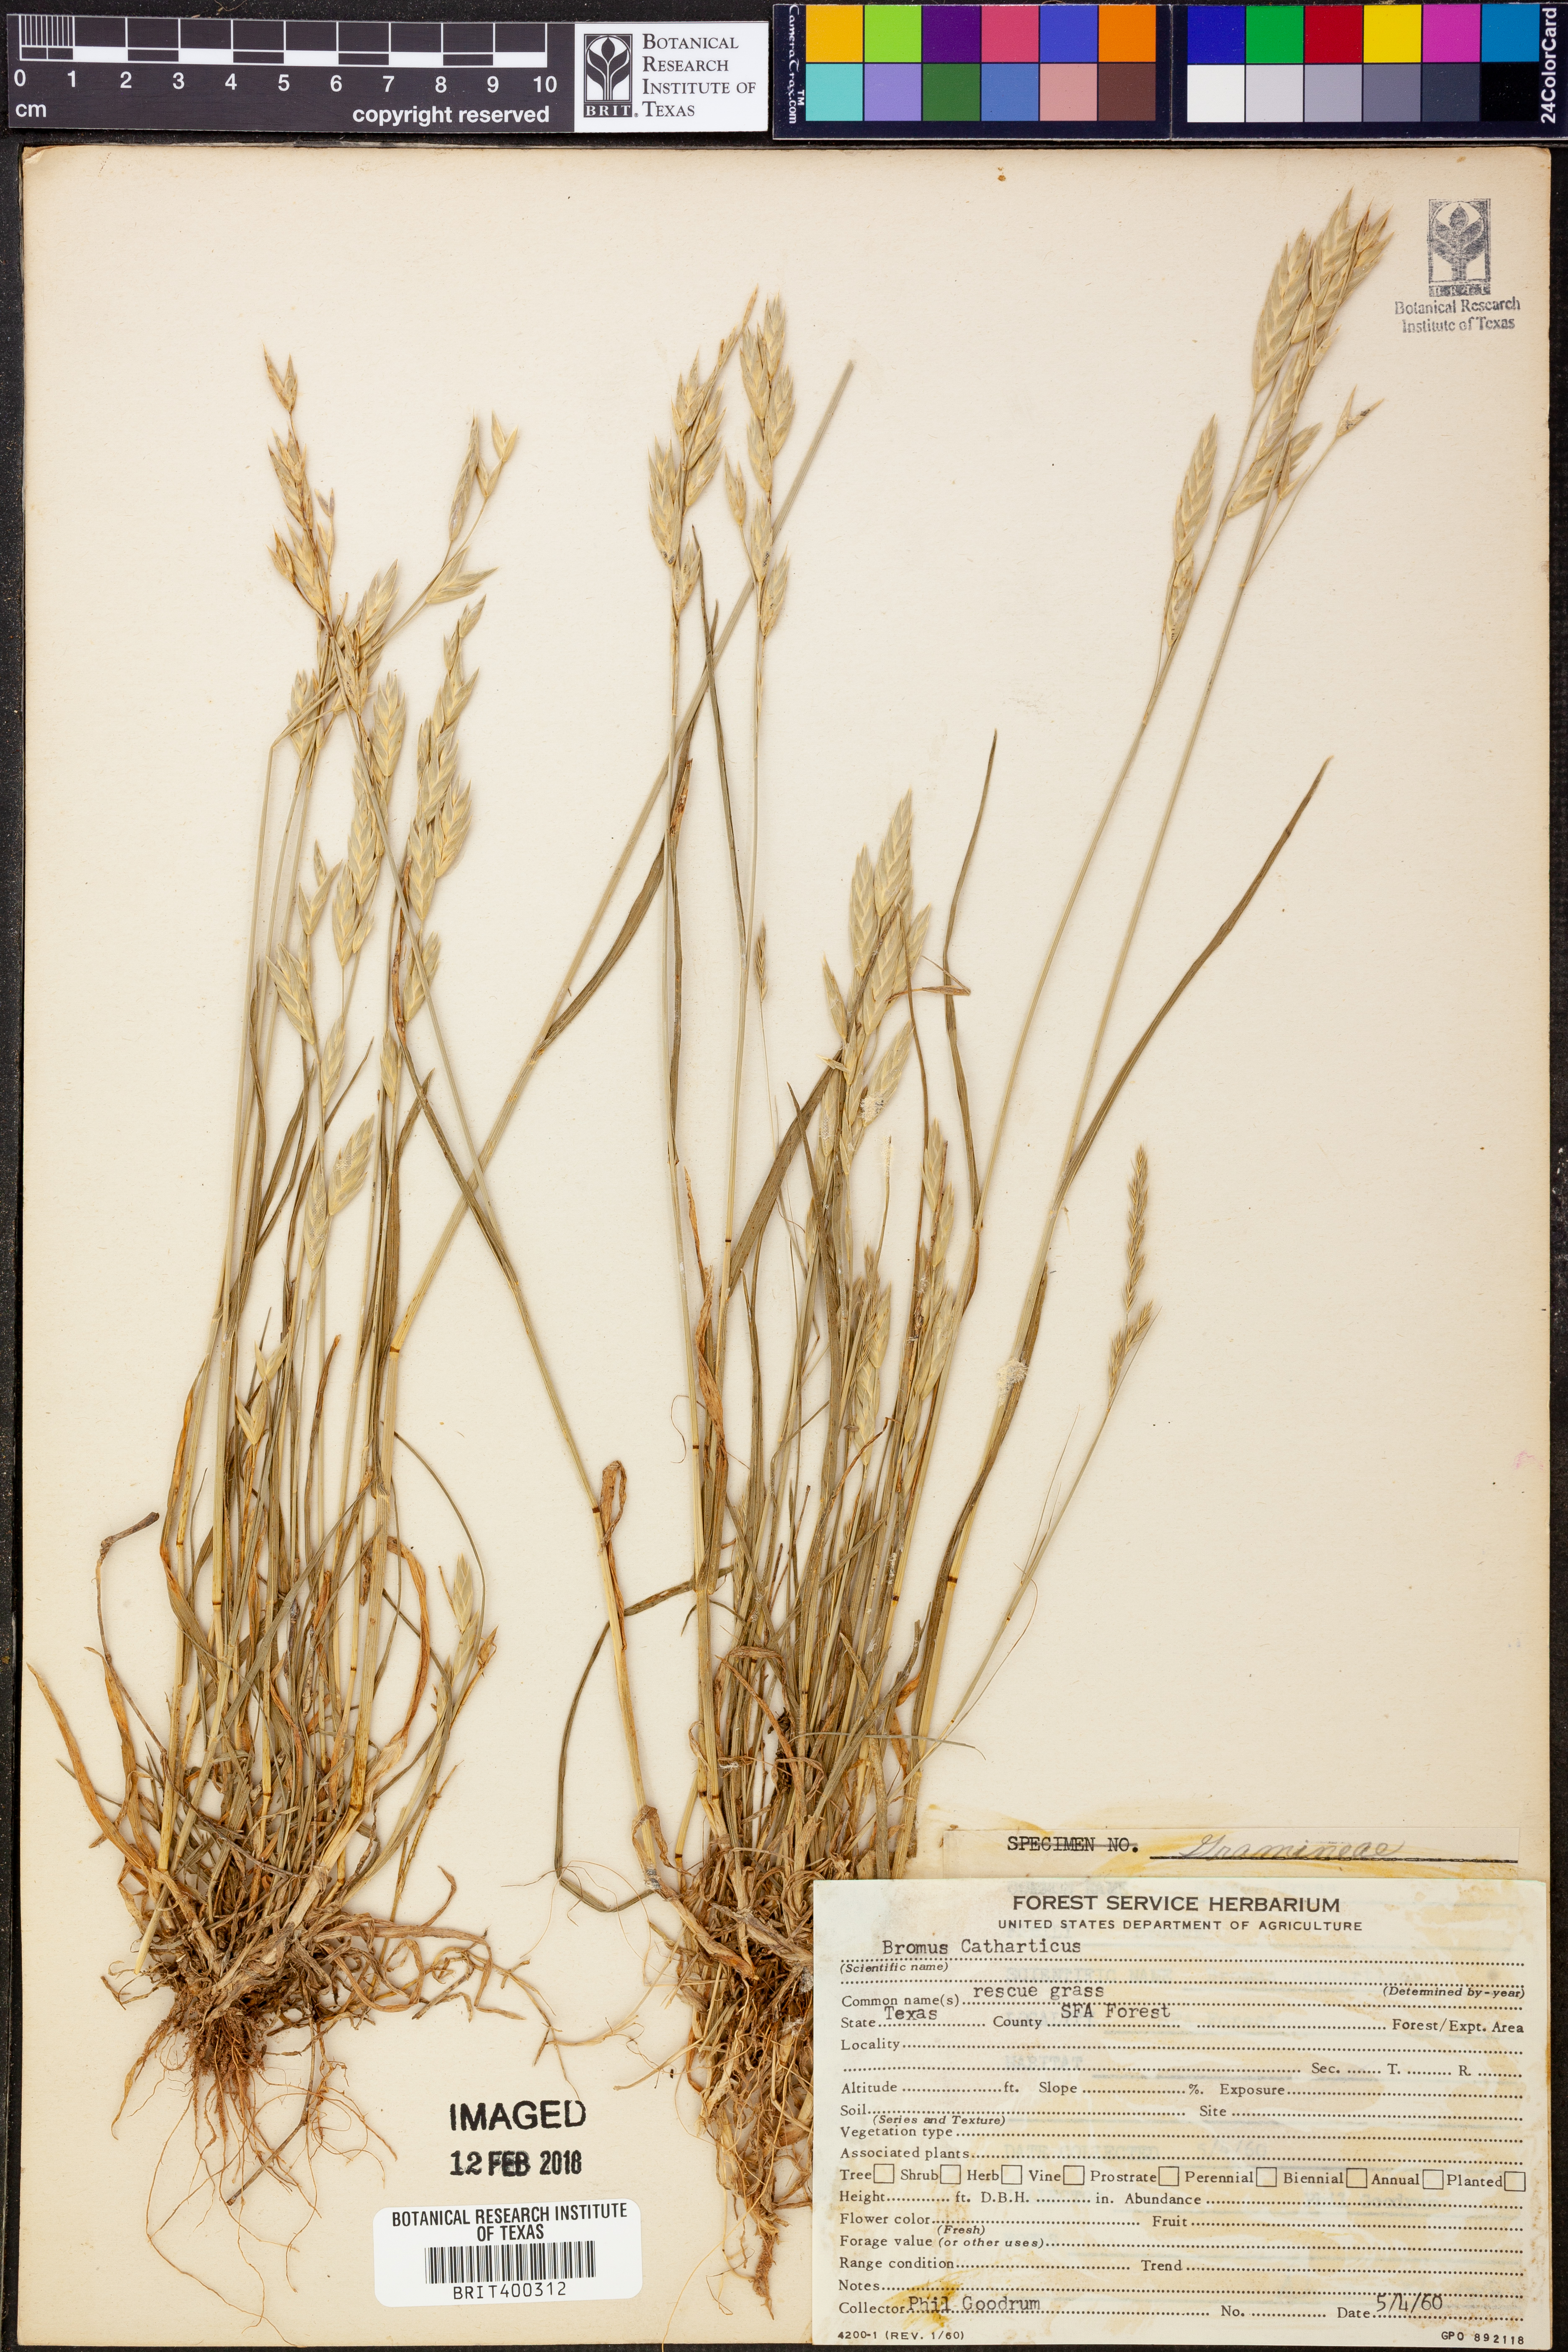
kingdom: Plantae
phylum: Tracheophyta
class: Liliopsida
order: Poales
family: Poaceae
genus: Bromus
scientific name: Bromus catharticus
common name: Rescuegrass
